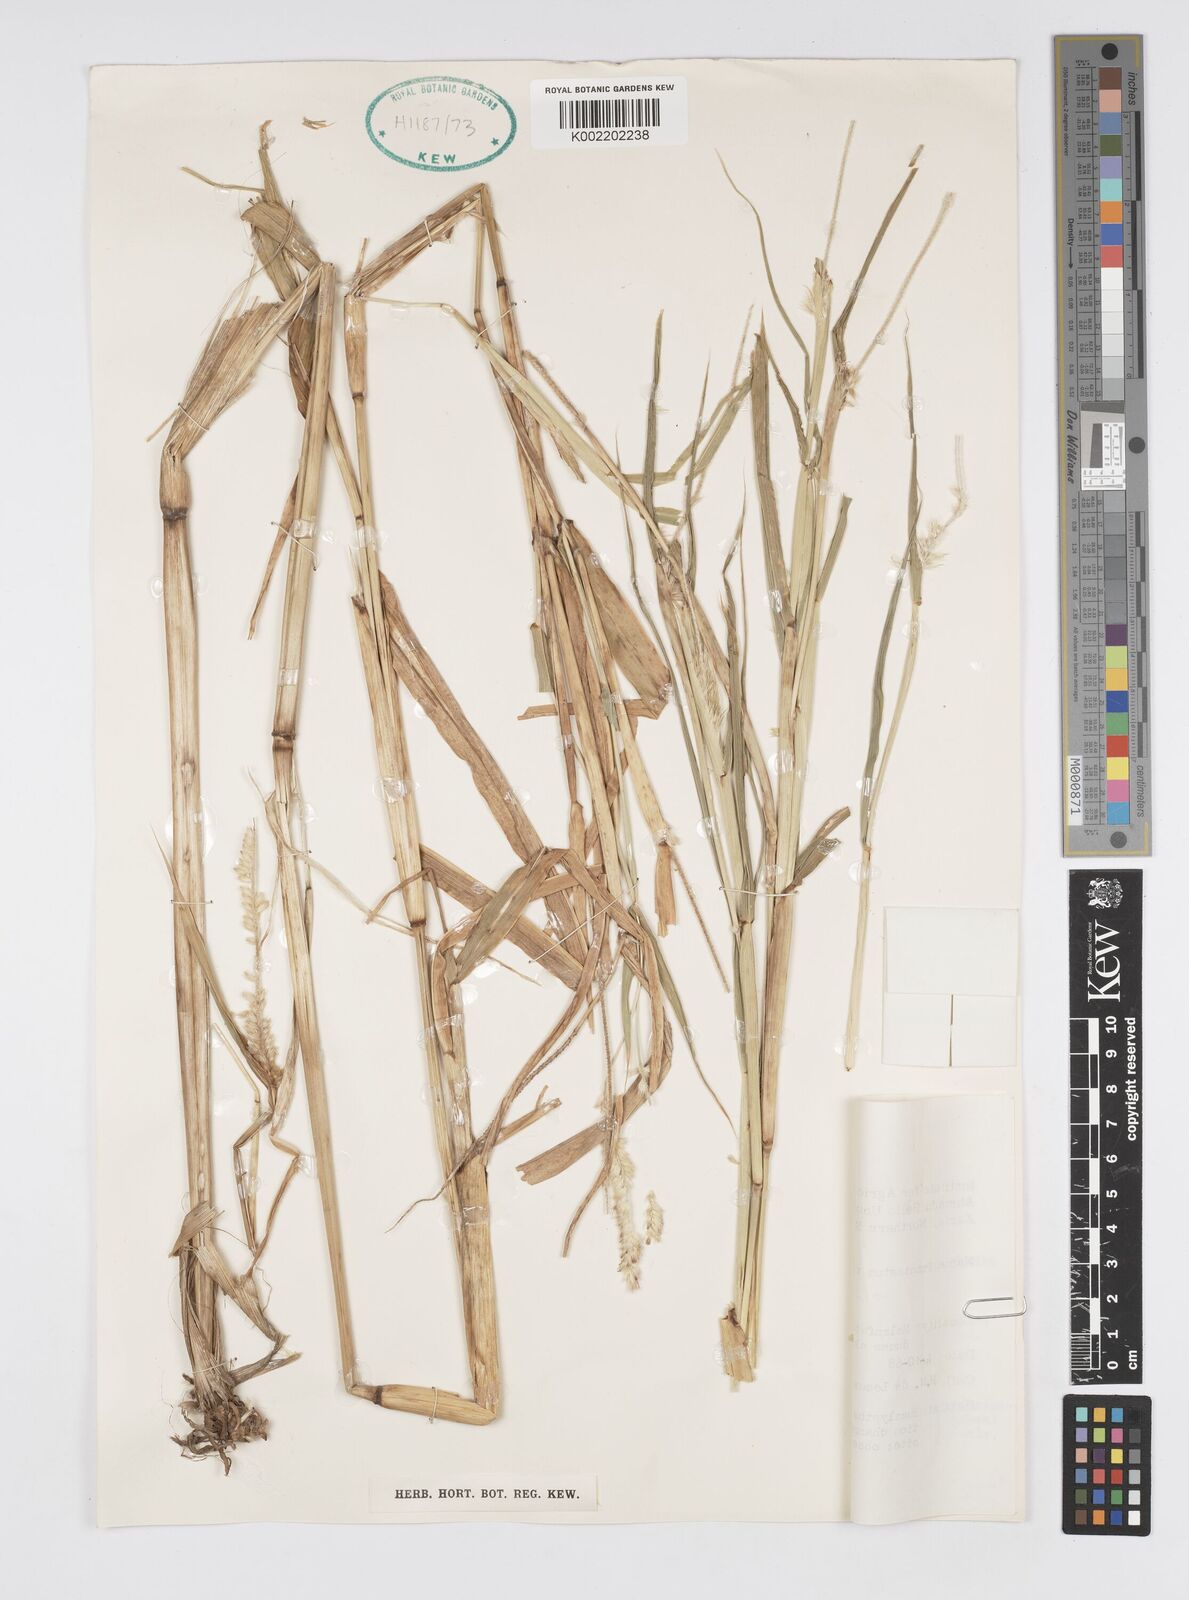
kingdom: Plantae
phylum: Tracheophyta
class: Liliopsida
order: Poales
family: Poaceae
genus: Cenchrus
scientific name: Cenchrus violaceus
